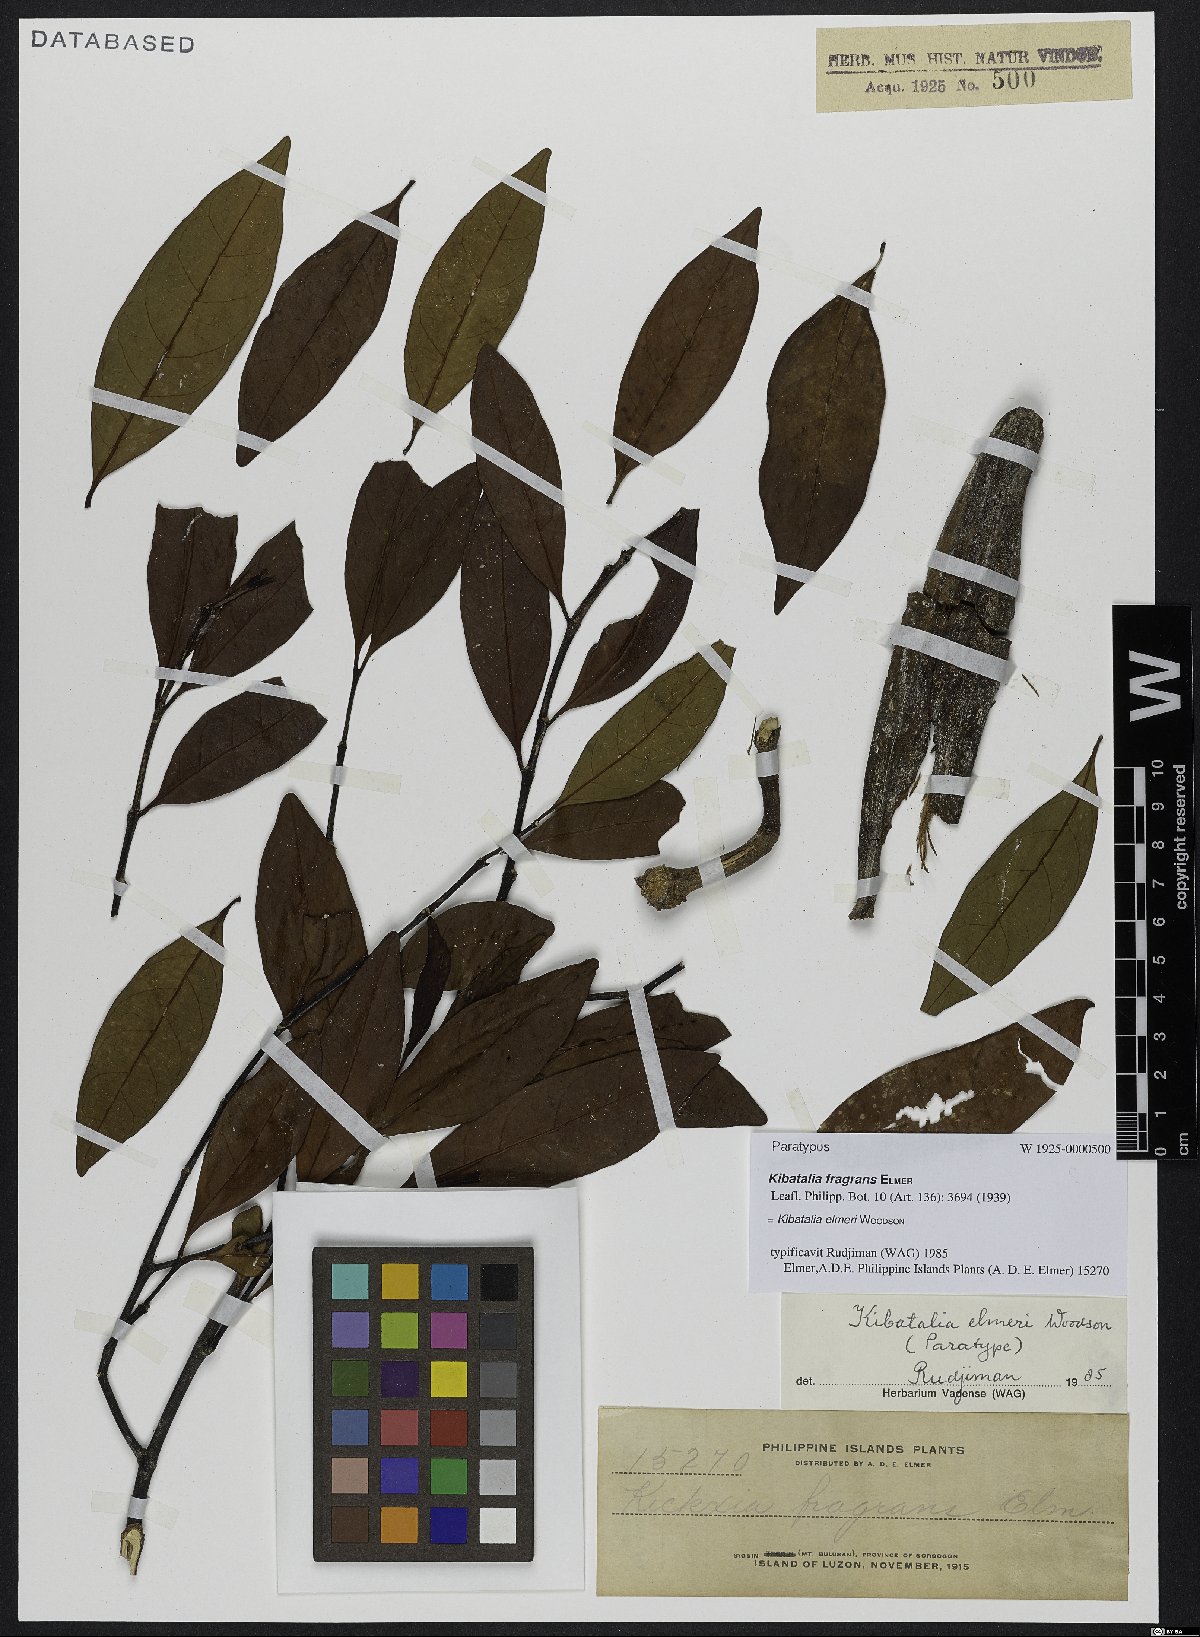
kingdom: Plantae
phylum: Tracheophyta
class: Magnoliopsida
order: Gentianales
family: Apocynaceae
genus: Kibatalia
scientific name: Kibatalia elmeri
